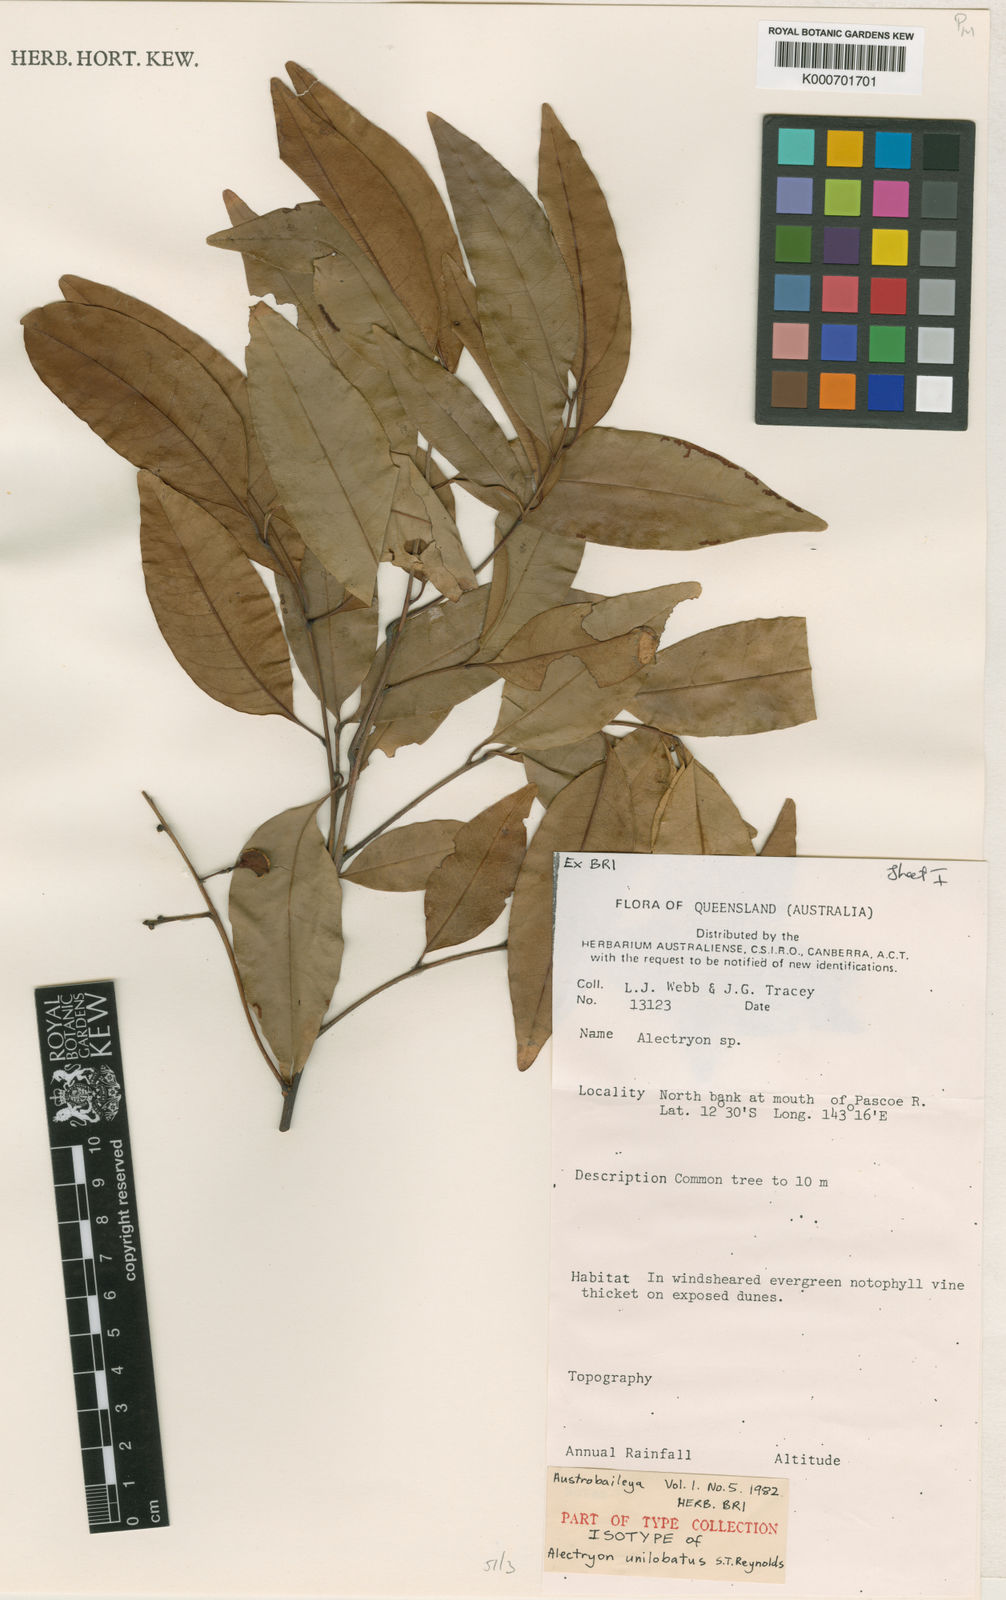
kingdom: Plantae
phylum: Tracheophyta
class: Magnoliopsida
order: Sapindales
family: Sapindaceae
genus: Alectryon
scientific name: Alectryon unilobatus
